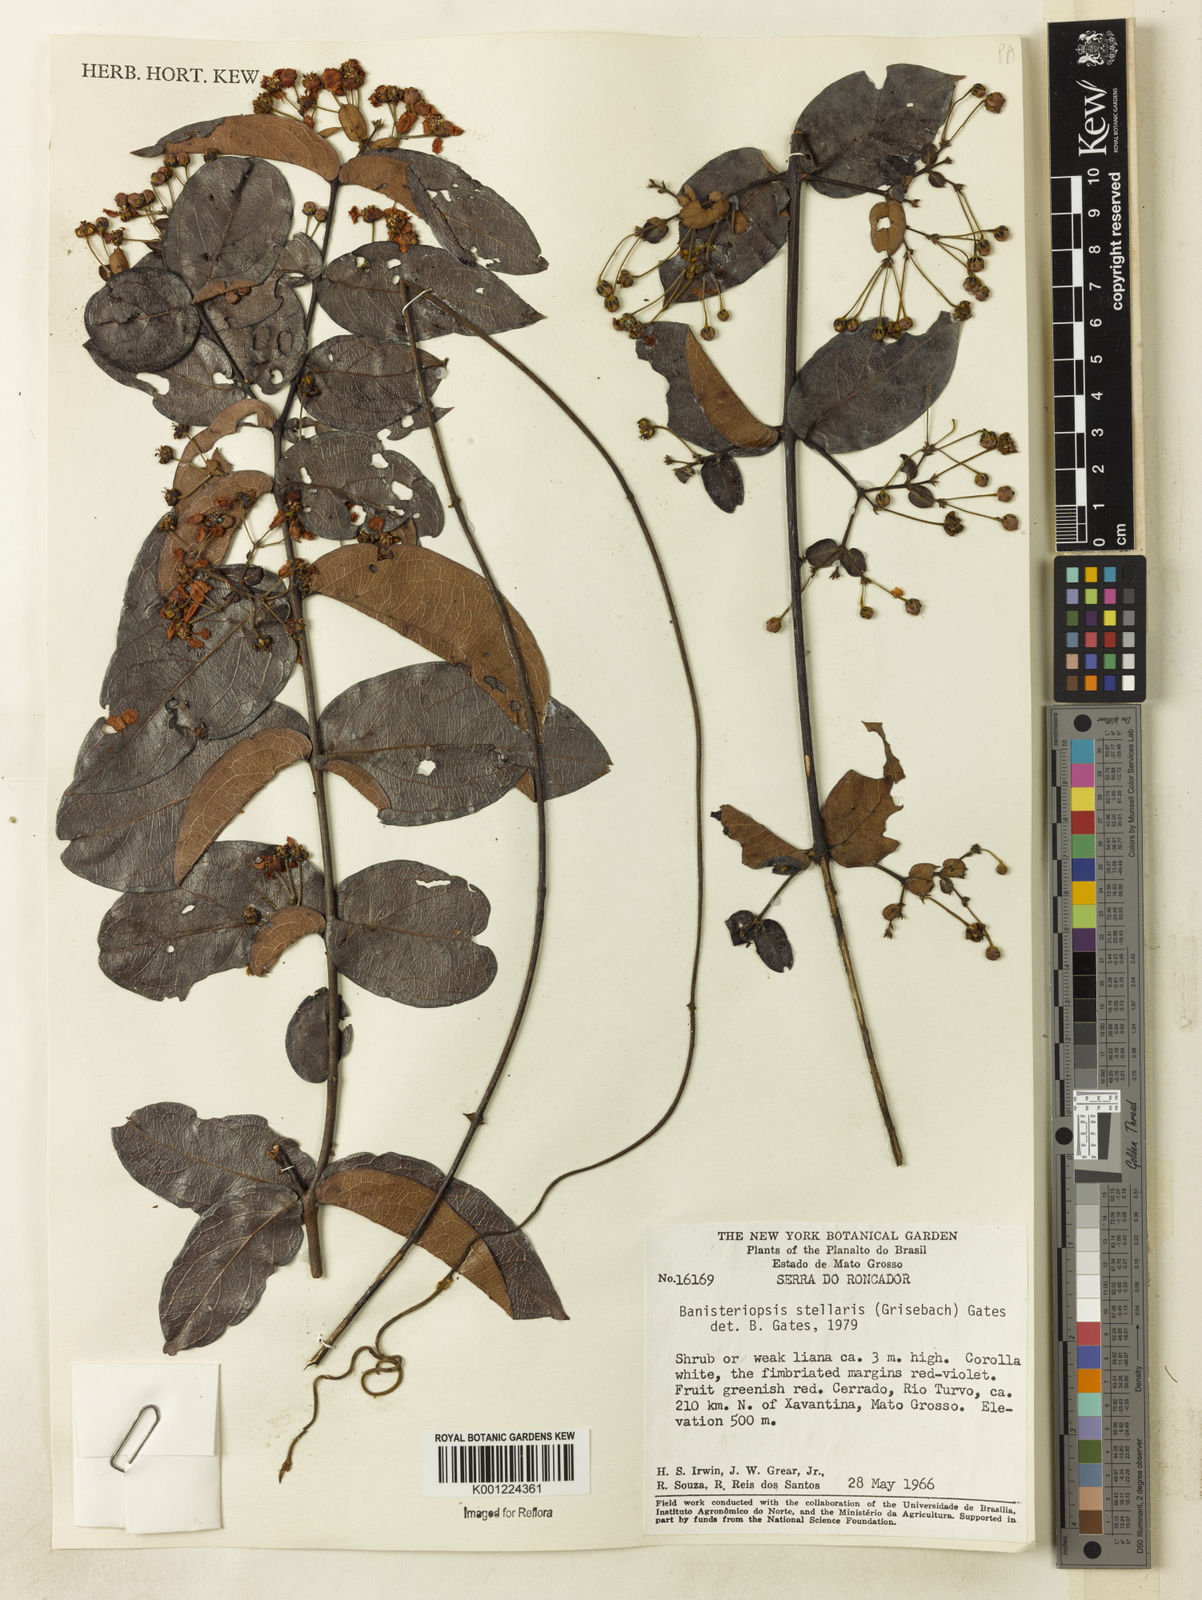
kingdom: Plantae
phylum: Tracheophyta
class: Magnoliopsida
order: Malpighiales
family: Malpighiaceae
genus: Banisteriopsis
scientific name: Banisteriopsis stellaris
